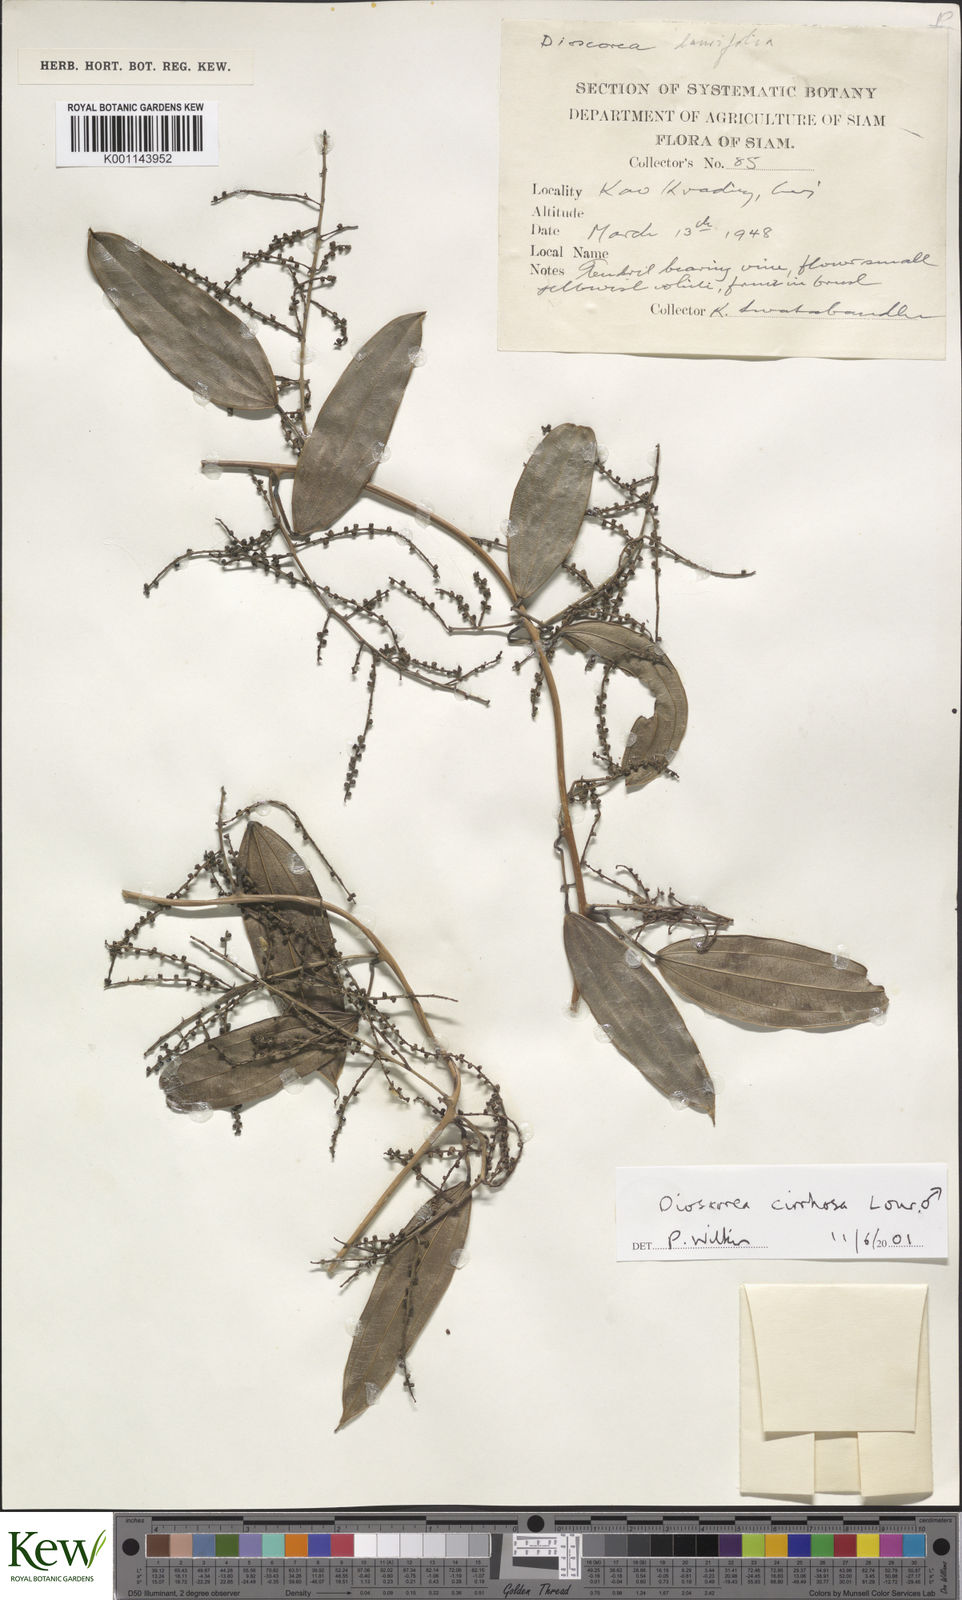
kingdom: Plantae
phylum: Tracheophyta
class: Liliopsida
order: Dioscoreales
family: Dioscoreaceae
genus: Dioscorea
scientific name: Dioscorea cirrhosa
